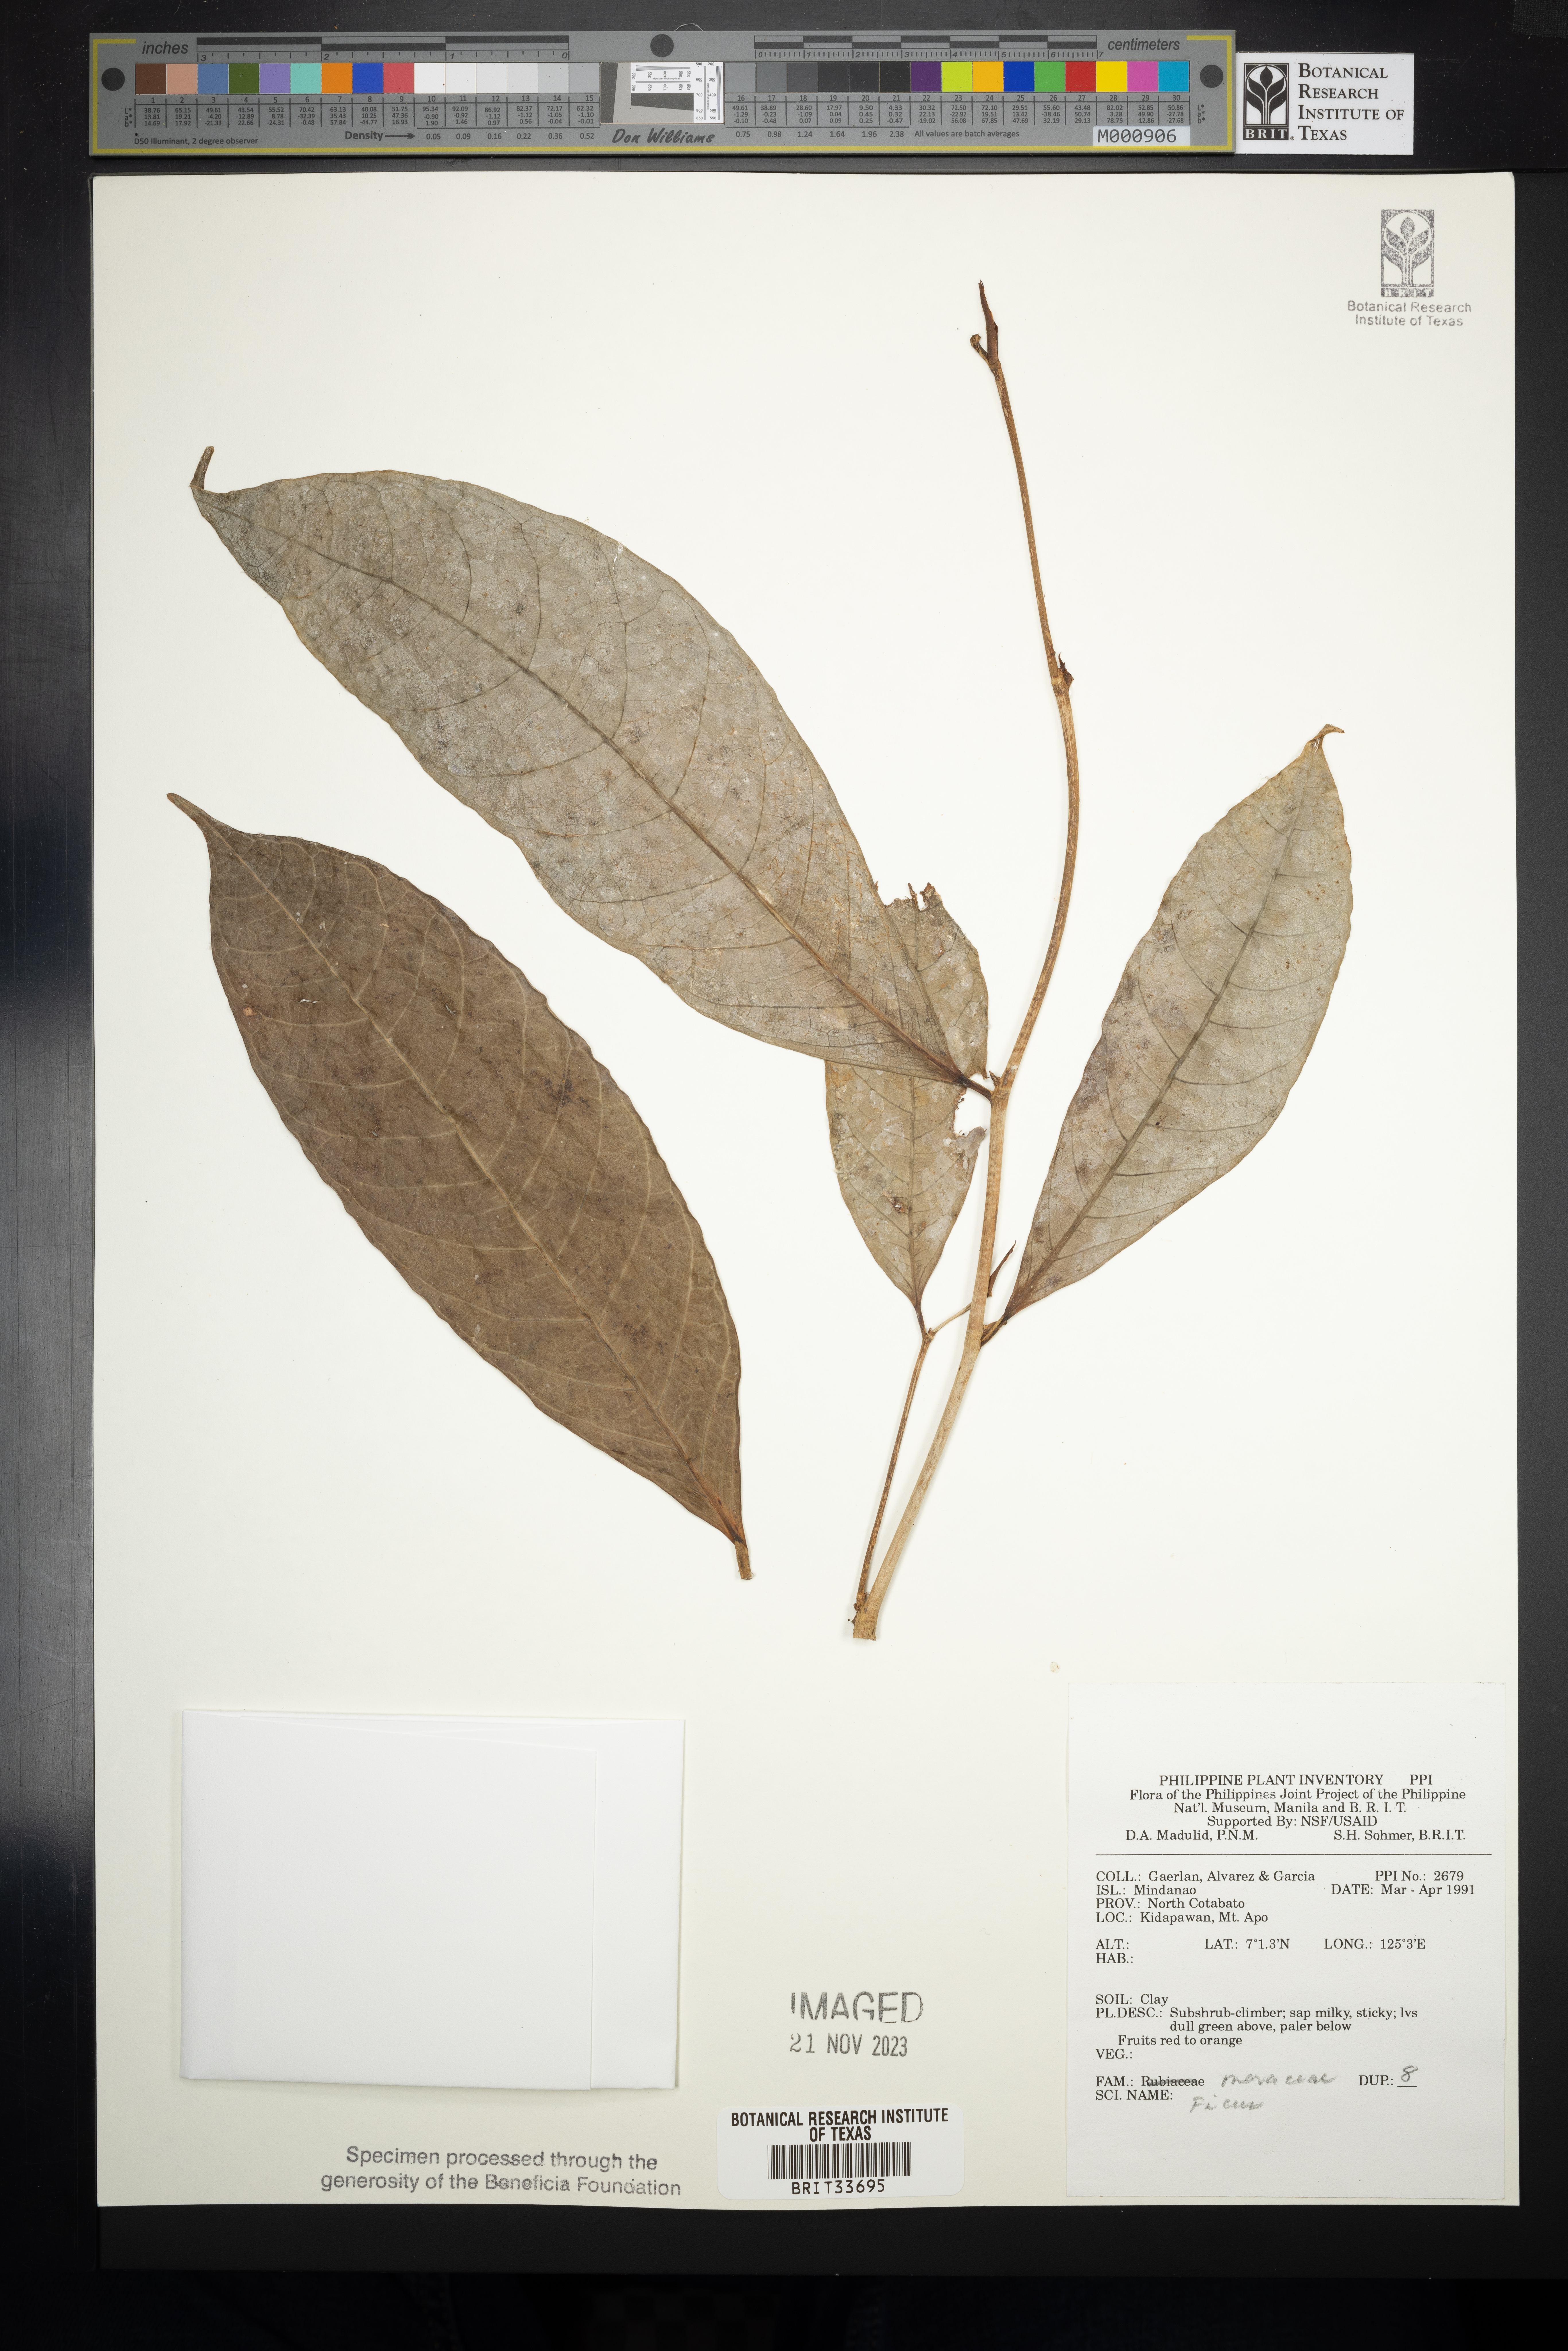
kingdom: Plantae
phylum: Tracheophyta
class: Magnoliopsida
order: Rosales
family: Moraceae
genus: Ficus
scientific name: Ficus
